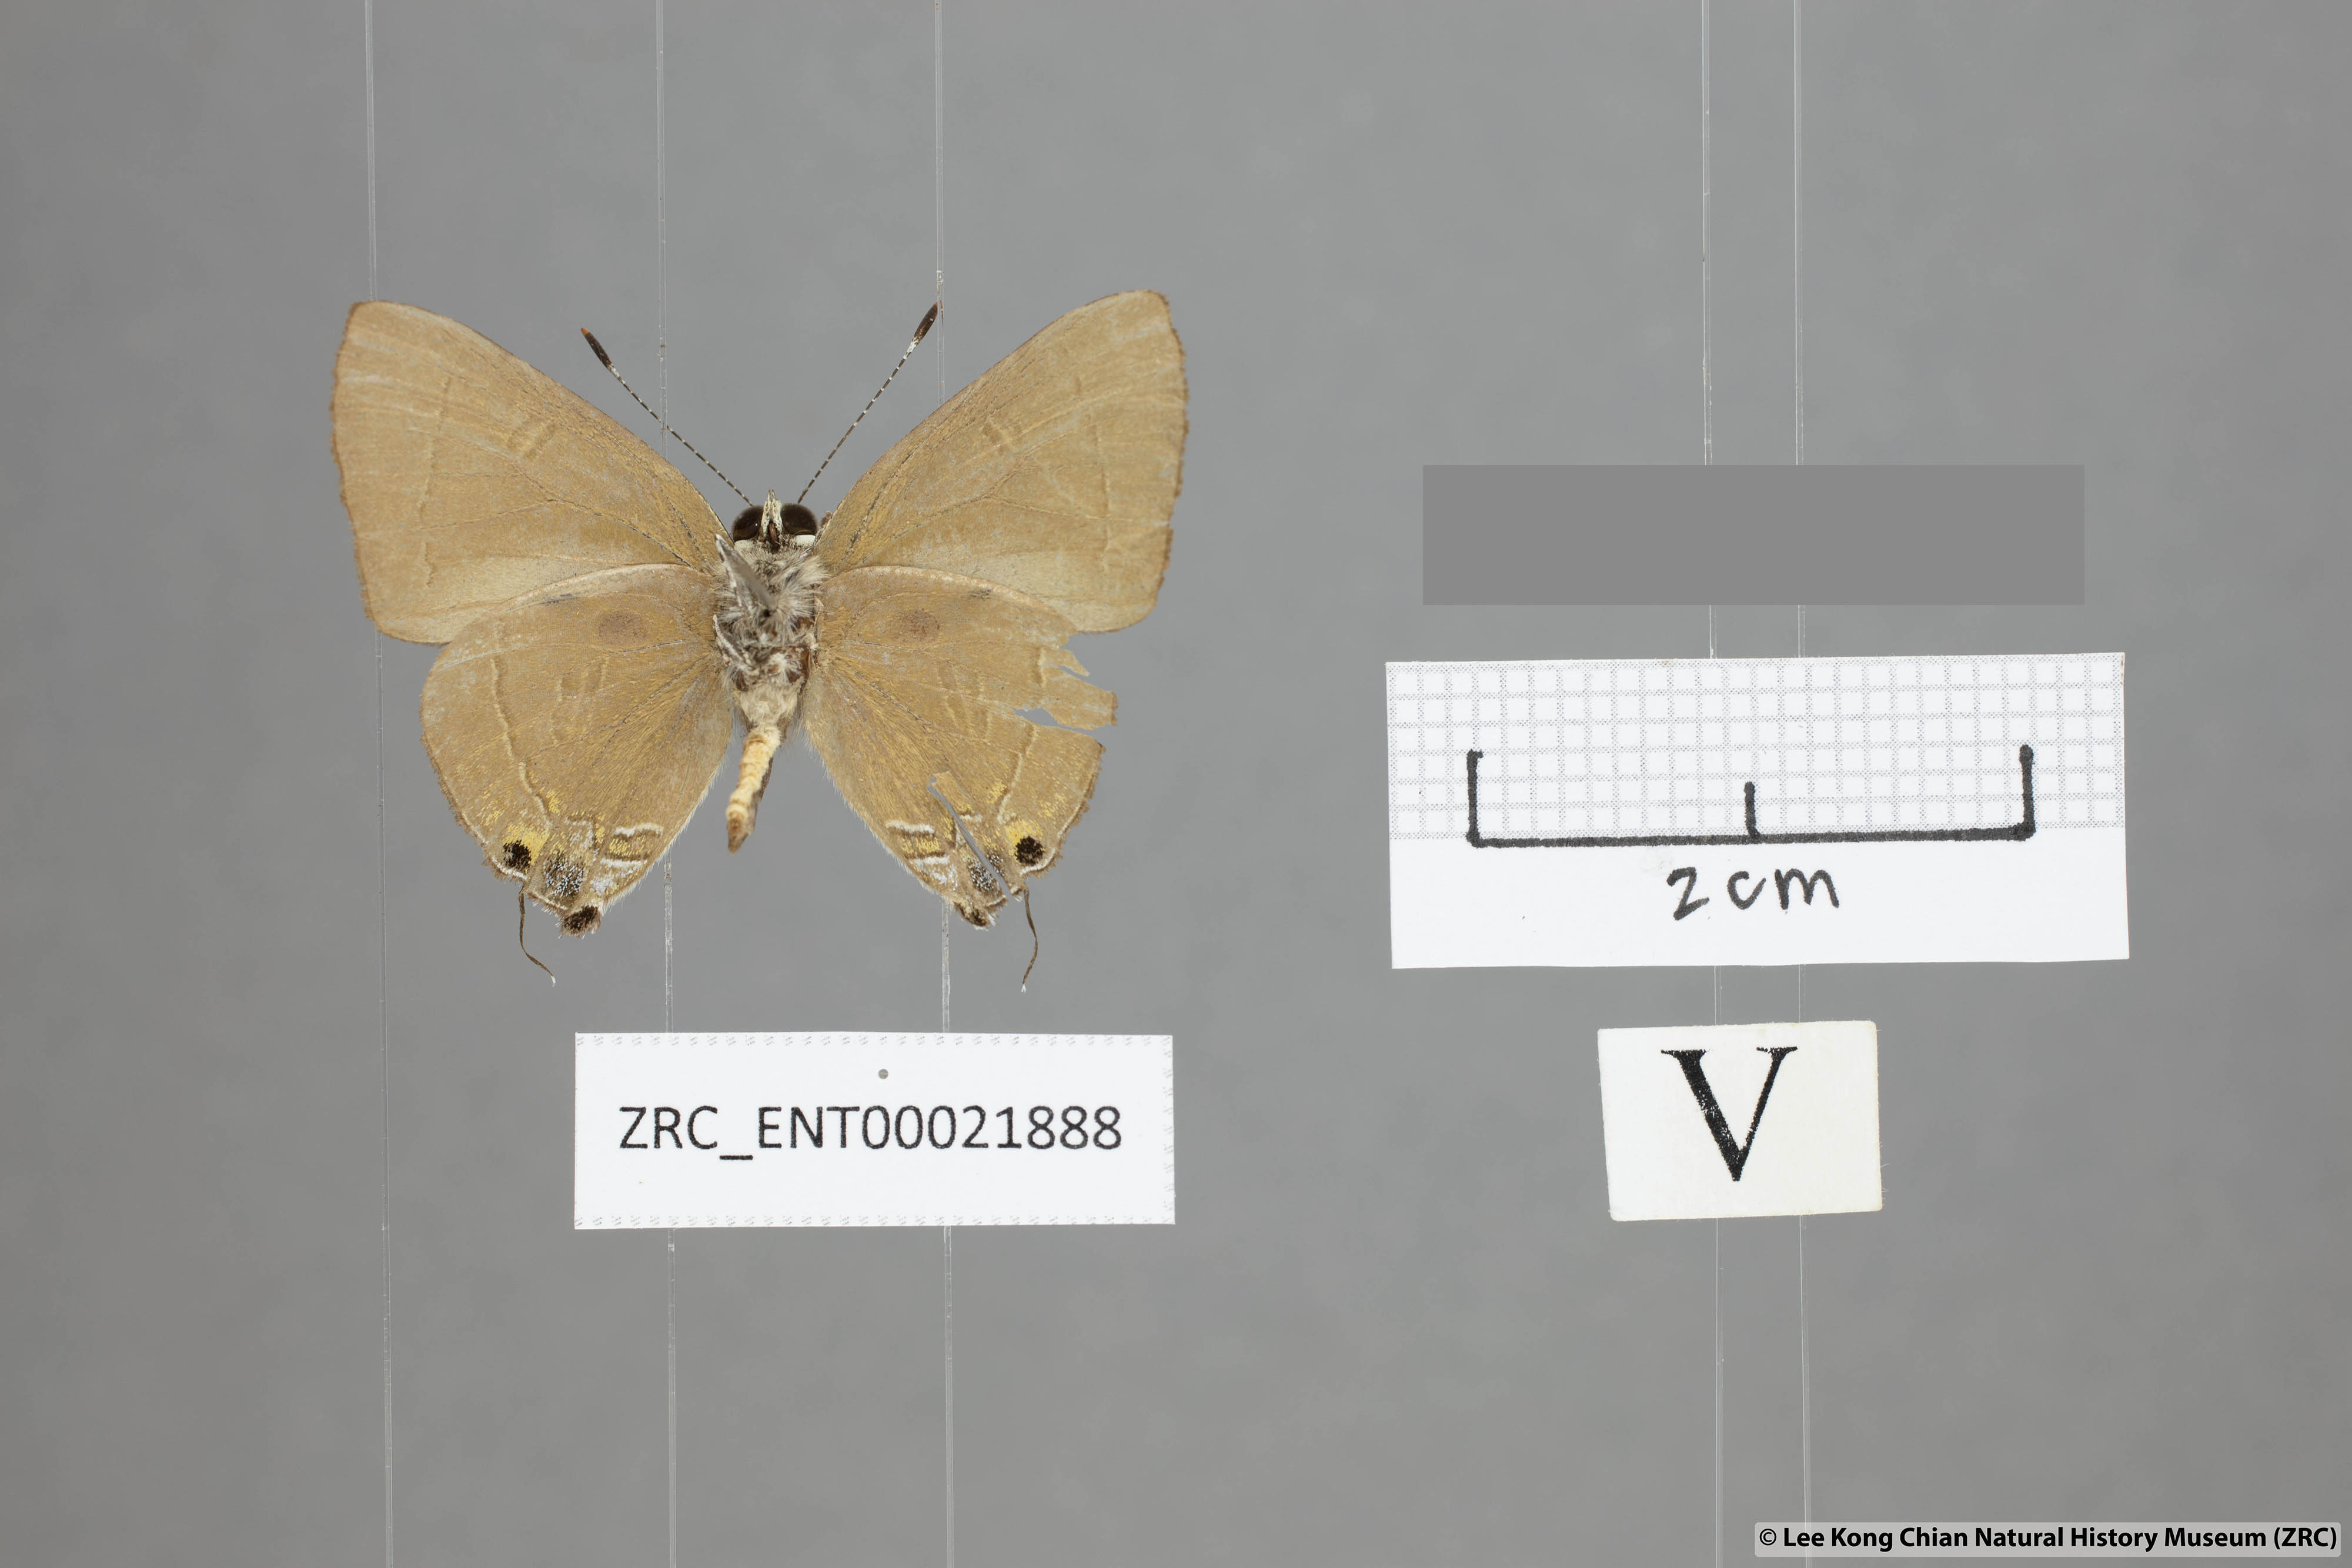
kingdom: Animalia
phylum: Arthropoda
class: Insecta
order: Lepidoptera
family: Lycaenidae
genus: Rapala
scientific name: Rapala rhodopis
